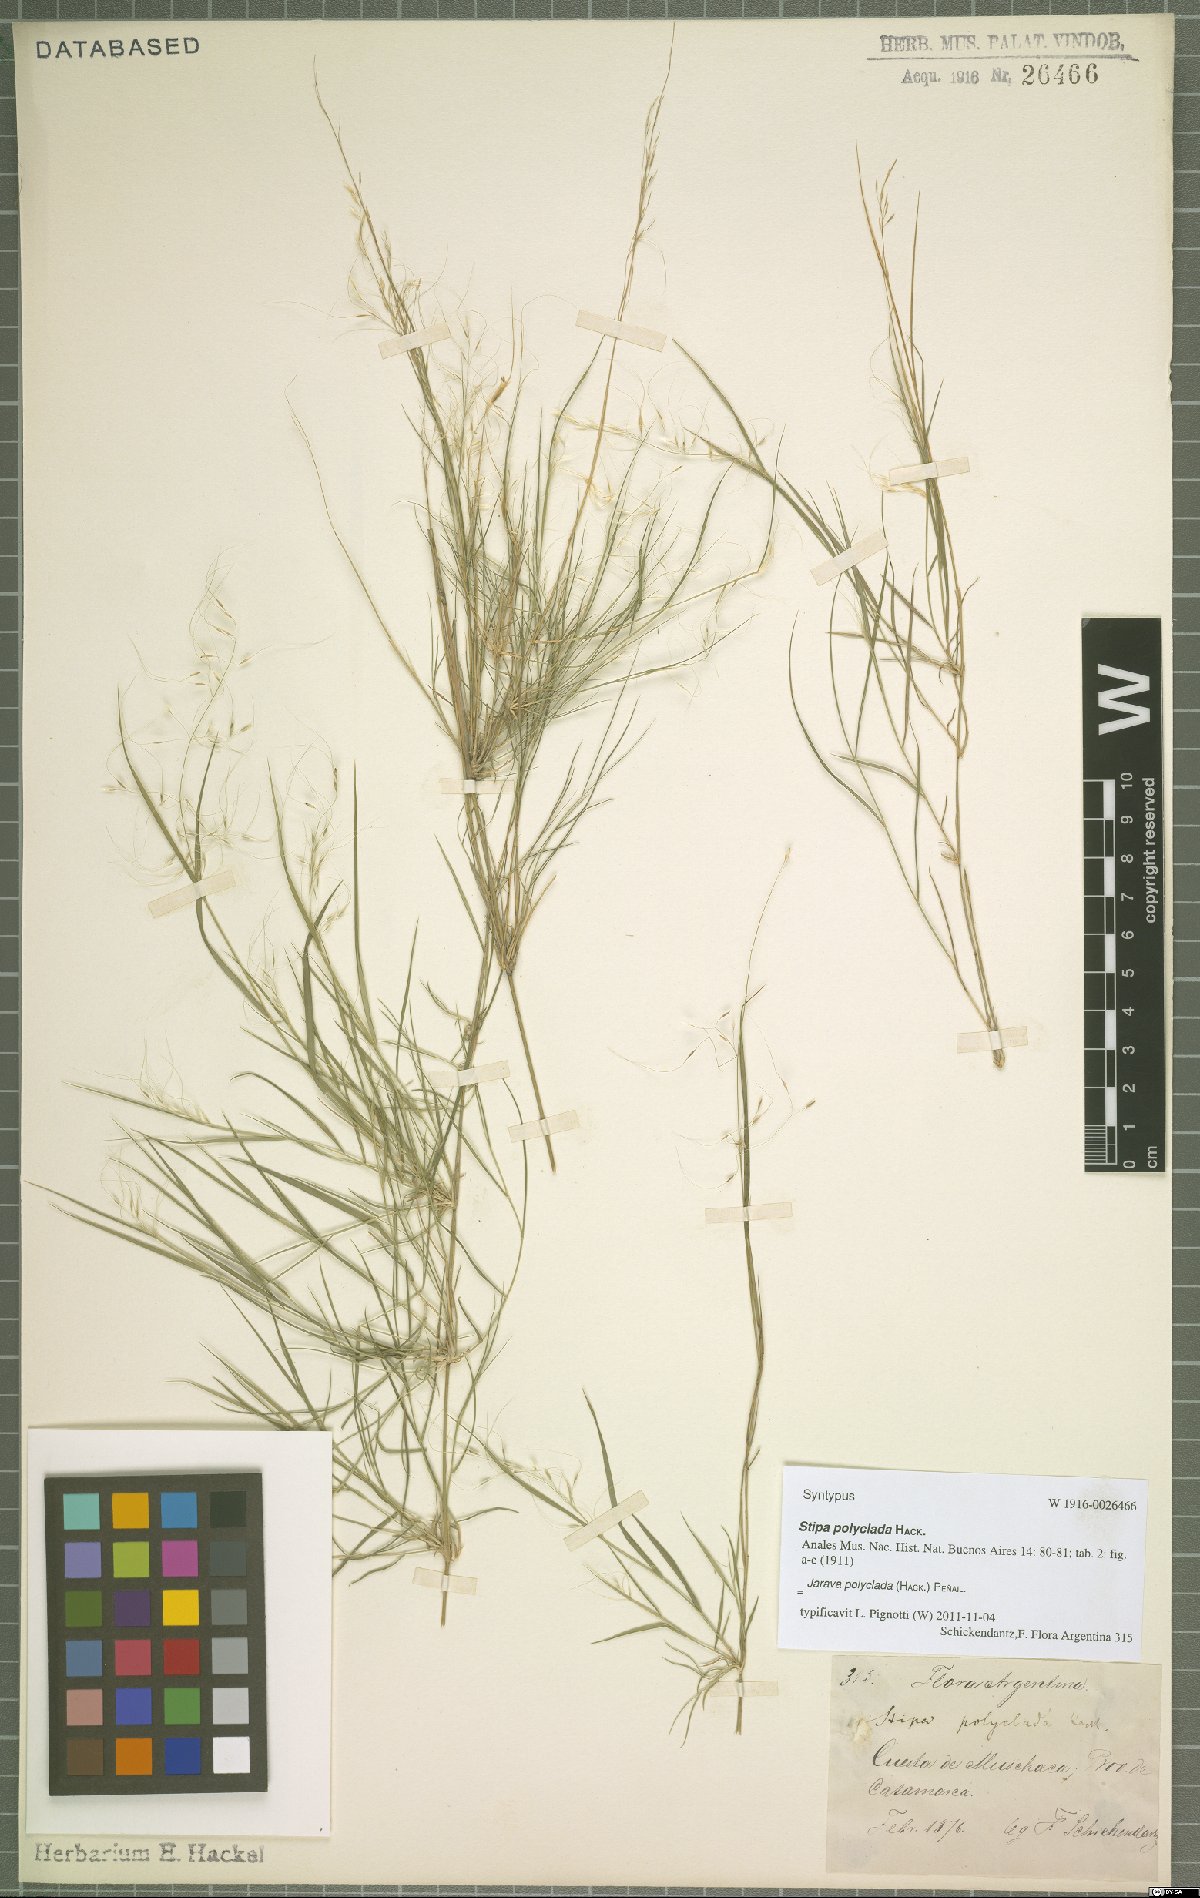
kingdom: Plantae
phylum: Tracheophyta
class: Liliopsida
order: Poales
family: Poaceae
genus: Stipa
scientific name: Stipa polyclada
